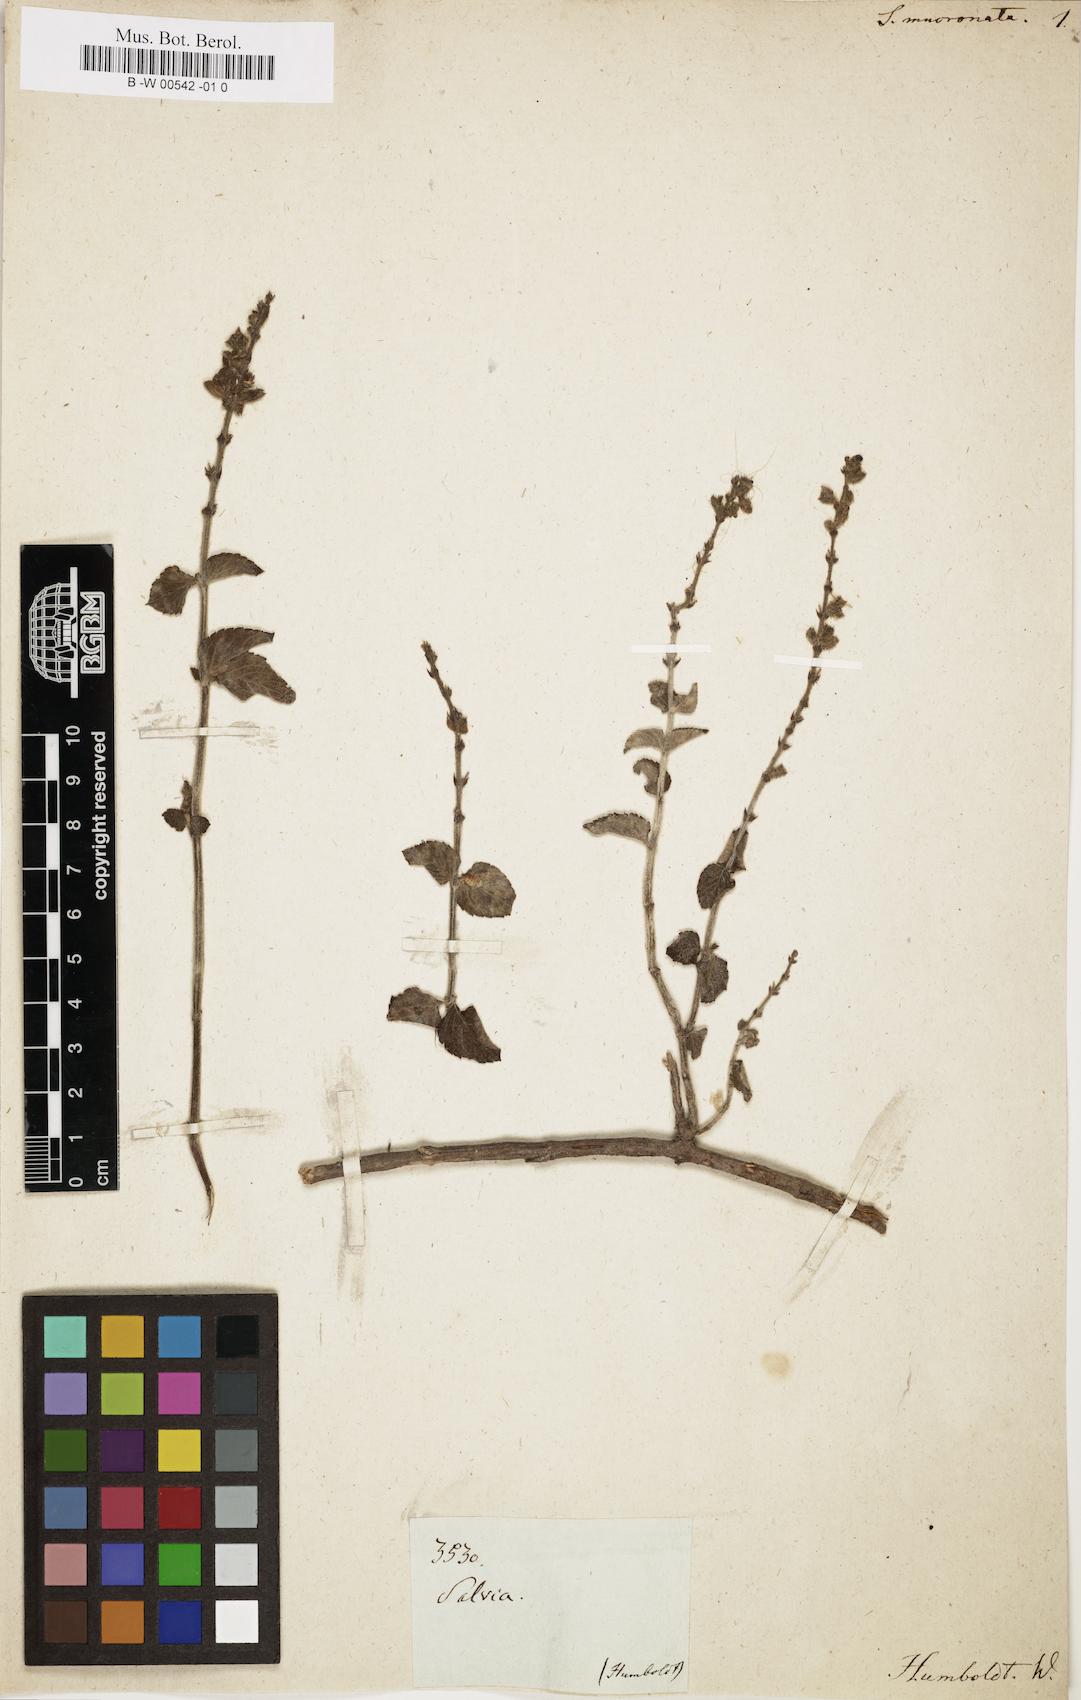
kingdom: Plantae
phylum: Tracheophyta
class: Magnoliopsida
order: Lamiales
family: Lamiaceae
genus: Salvia
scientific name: Salvia
